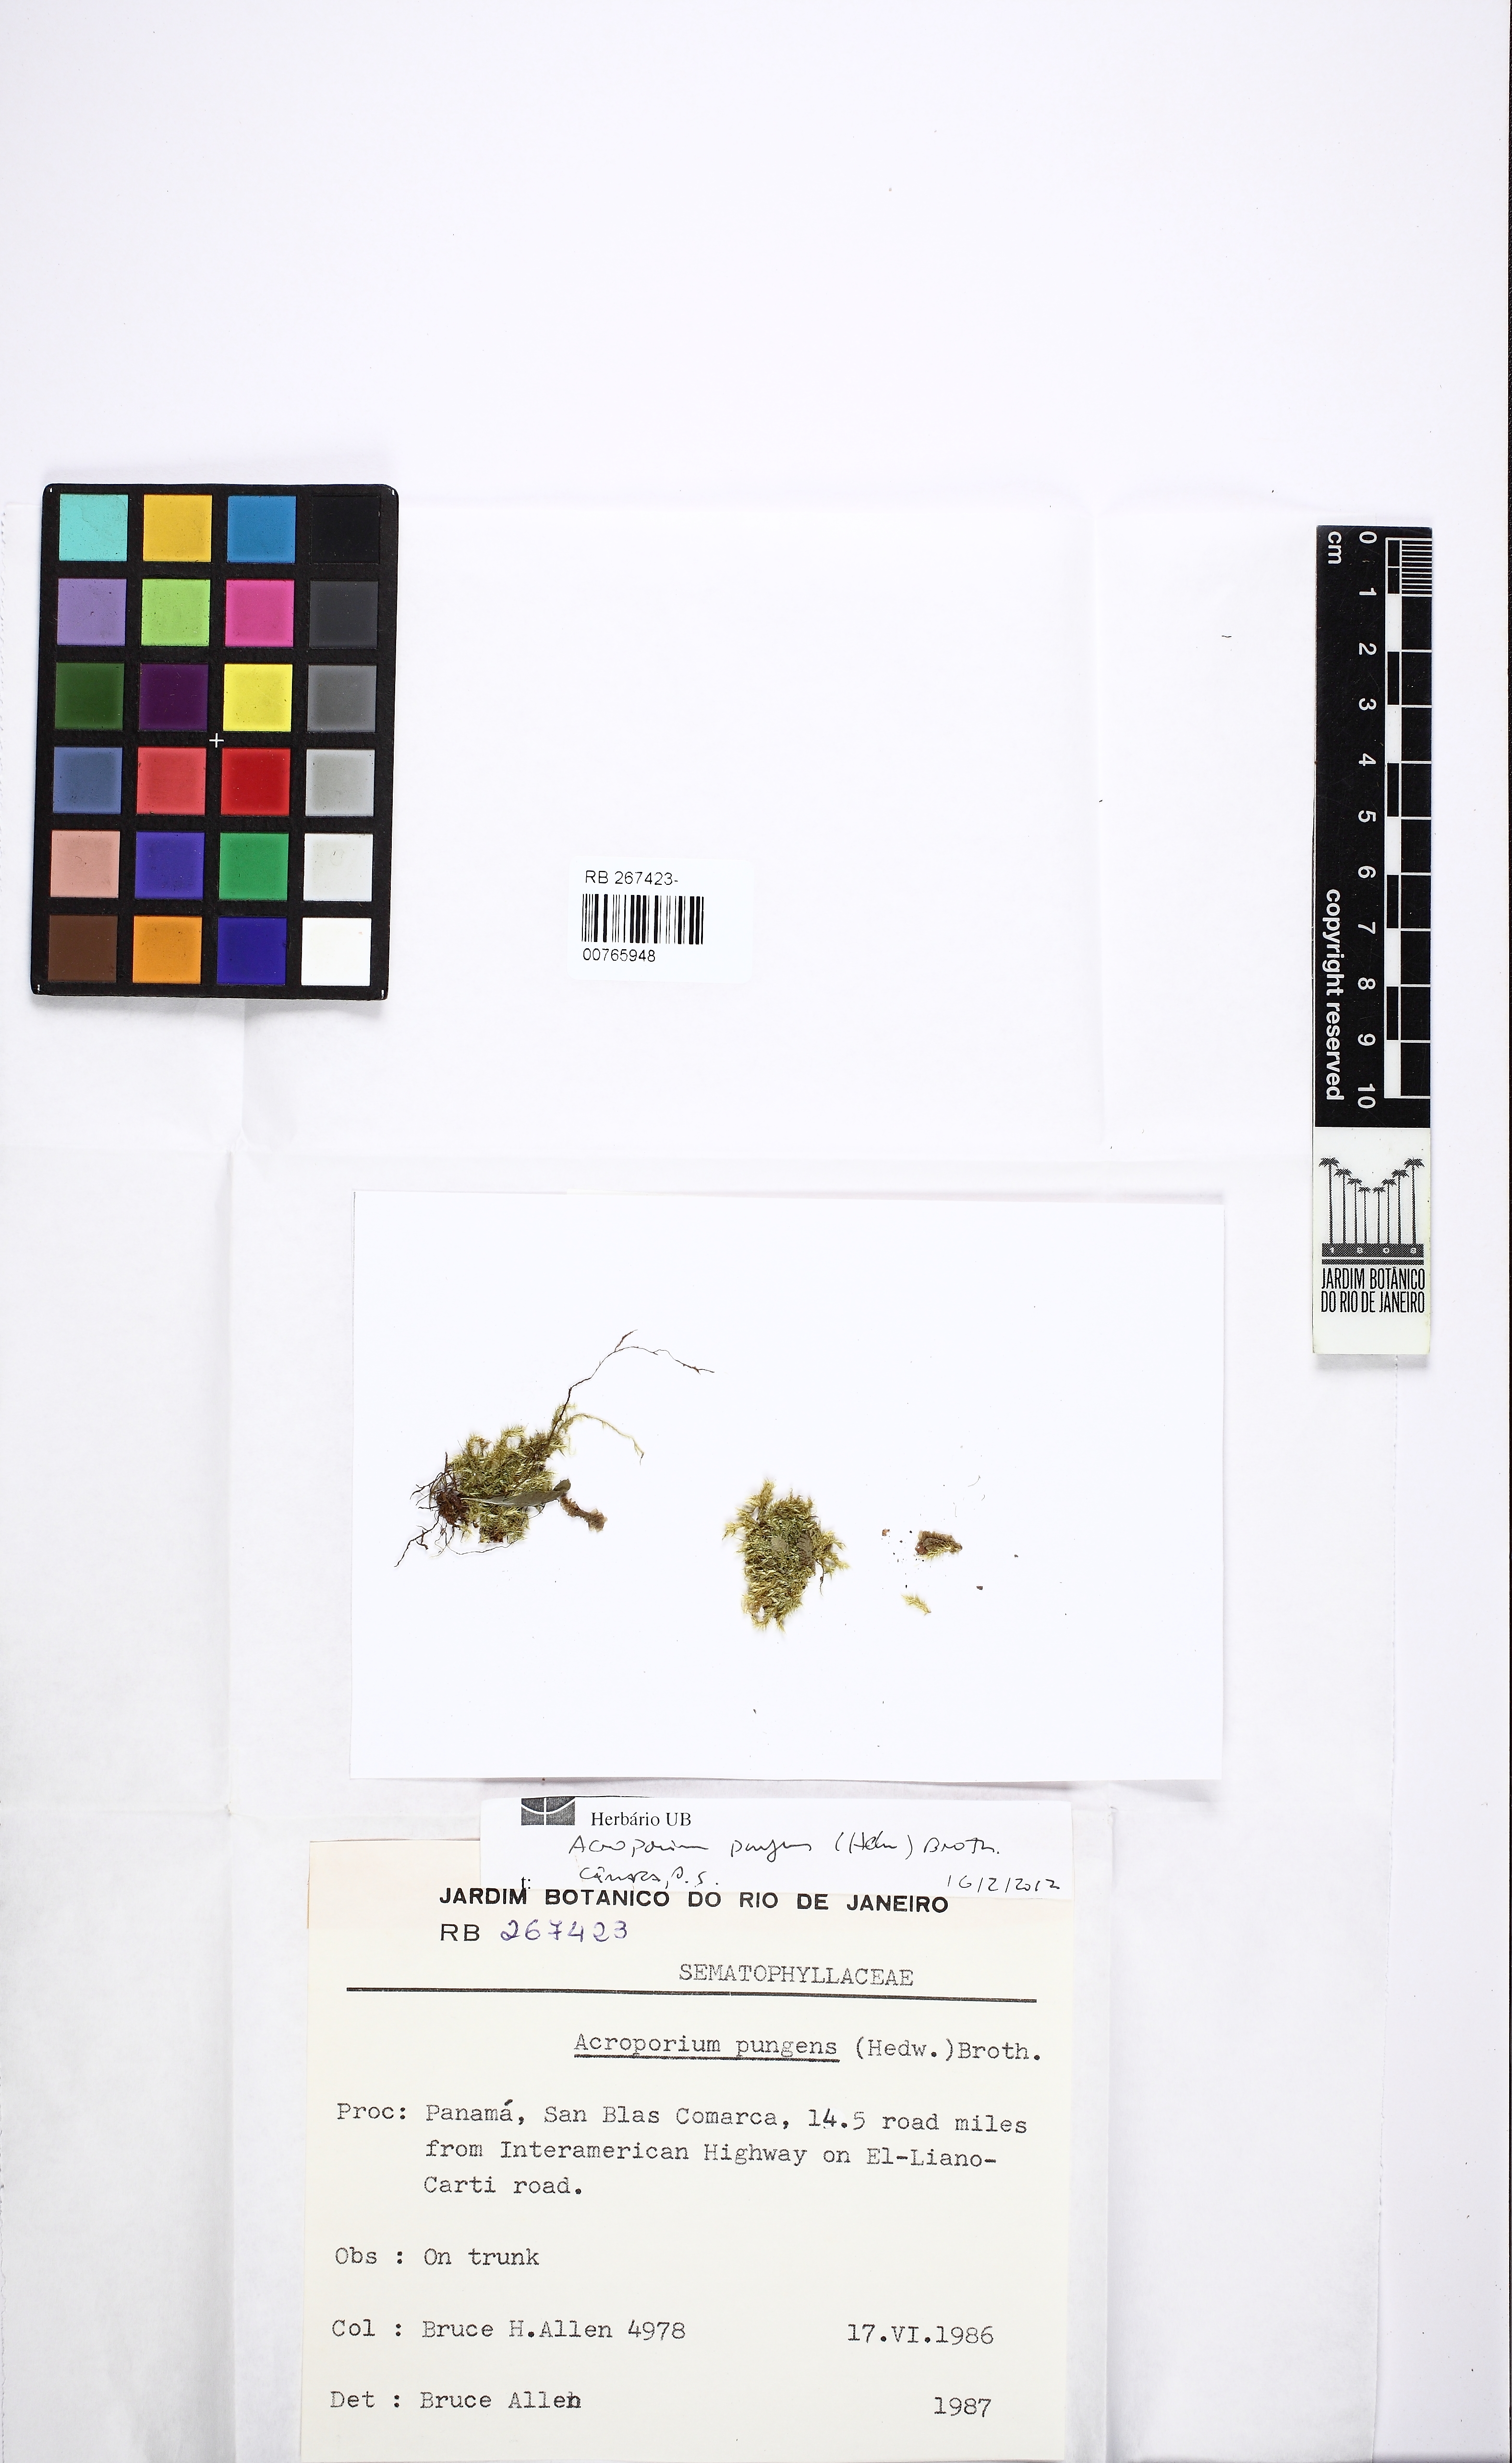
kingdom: Plantae
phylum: Bryophyta
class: Bryopsida
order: Hypnales
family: Sematophyllaceae
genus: Acroporium
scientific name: Acroporium pungens
